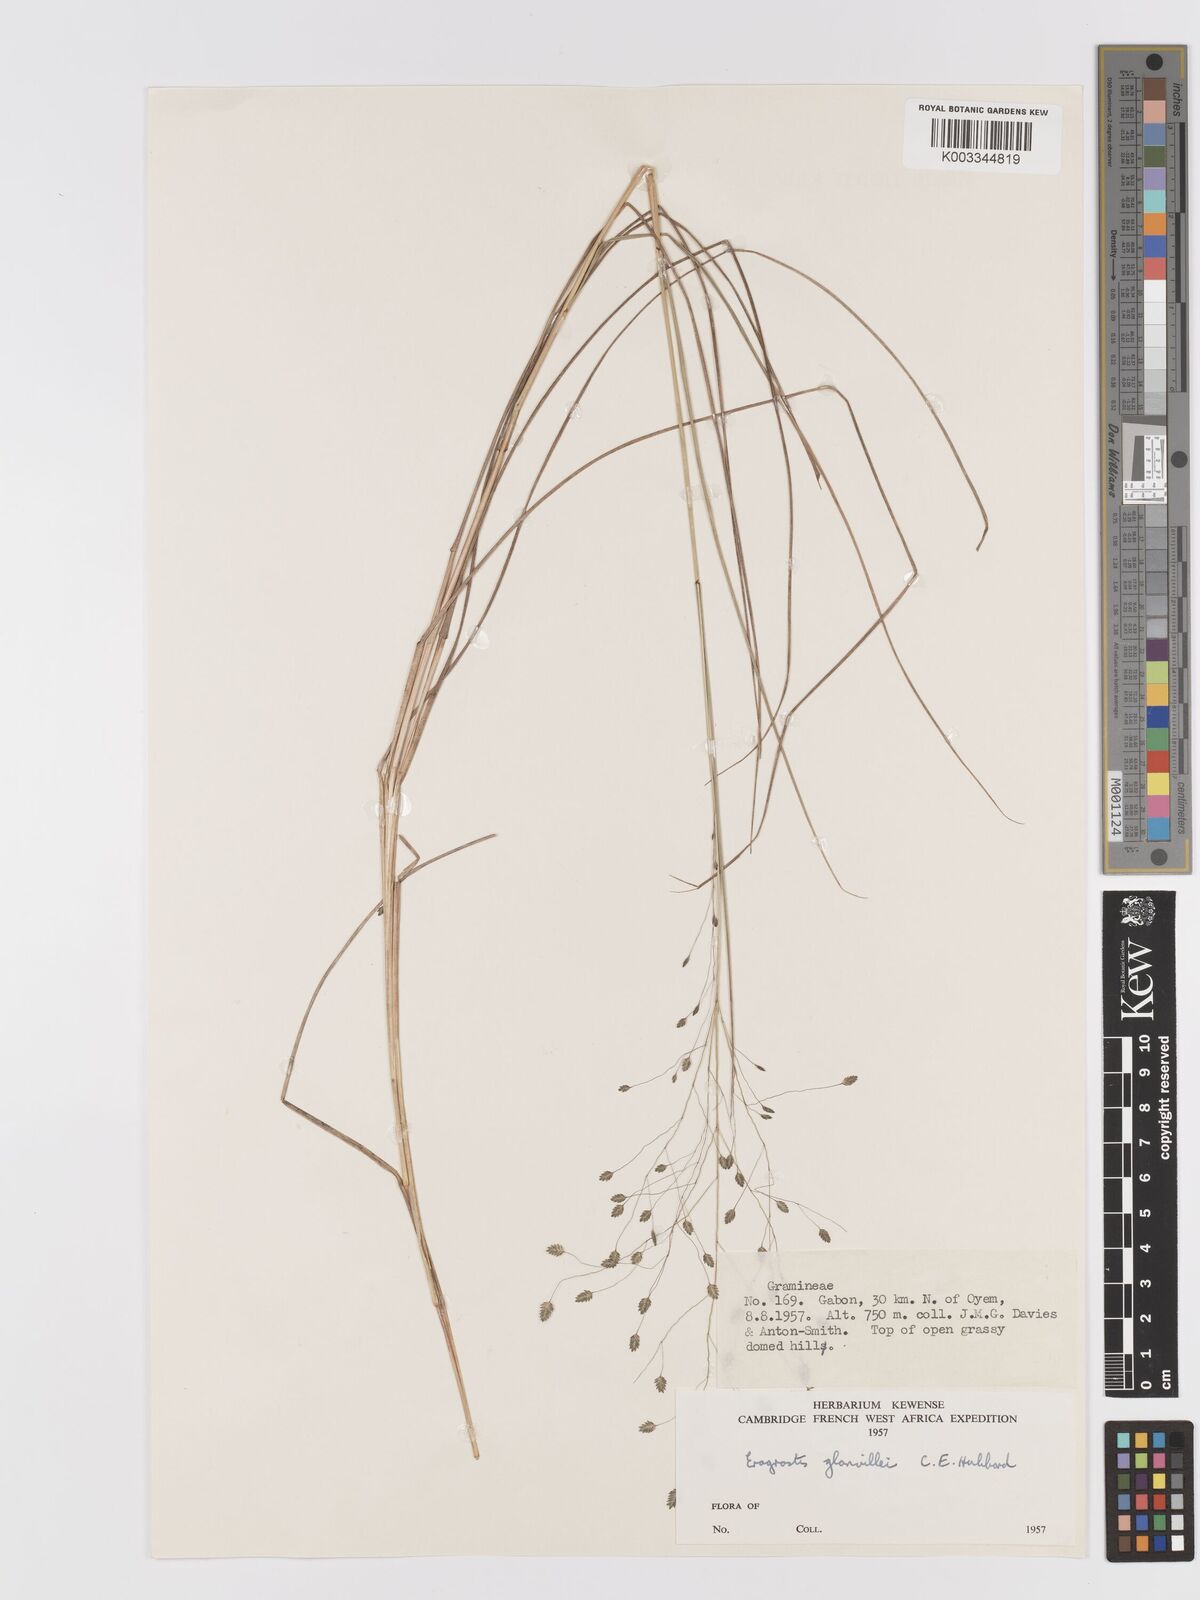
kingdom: Plantae
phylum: Tracheophyta
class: Liliopsida
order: Poales
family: Poaceae
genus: Eragrostis
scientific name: Eragrostis invalida
